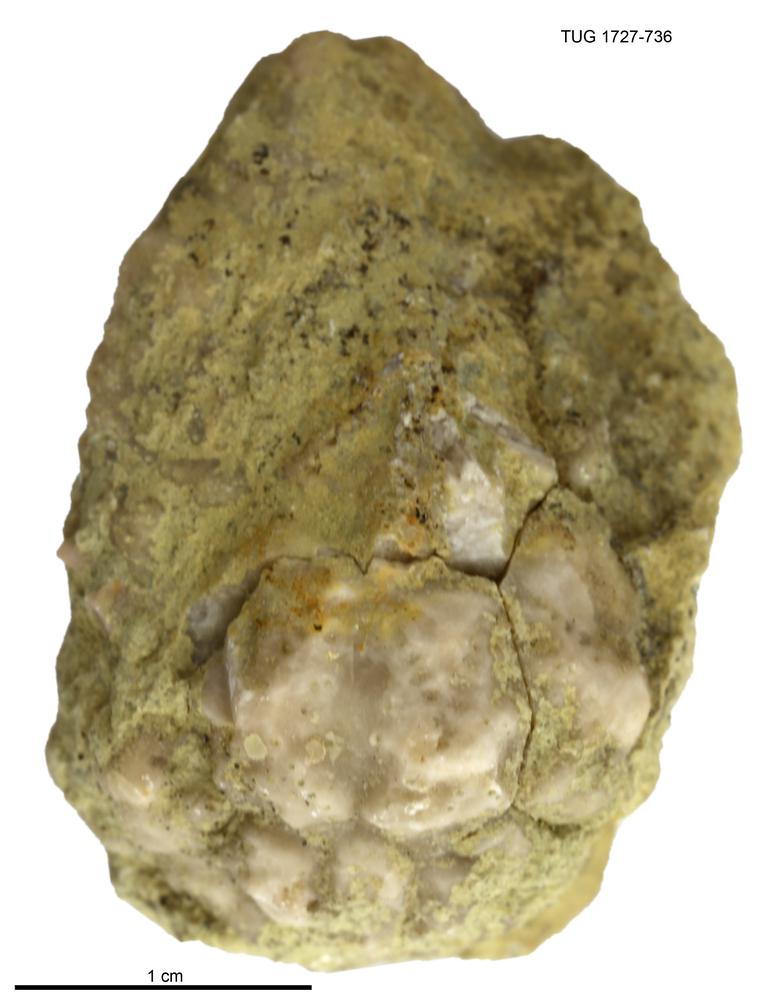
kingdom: Animalia
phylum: Echinodermata
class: Crinoidea
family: Hemicosmitidae
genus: Hemicosmites
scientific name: Hemicosmites
